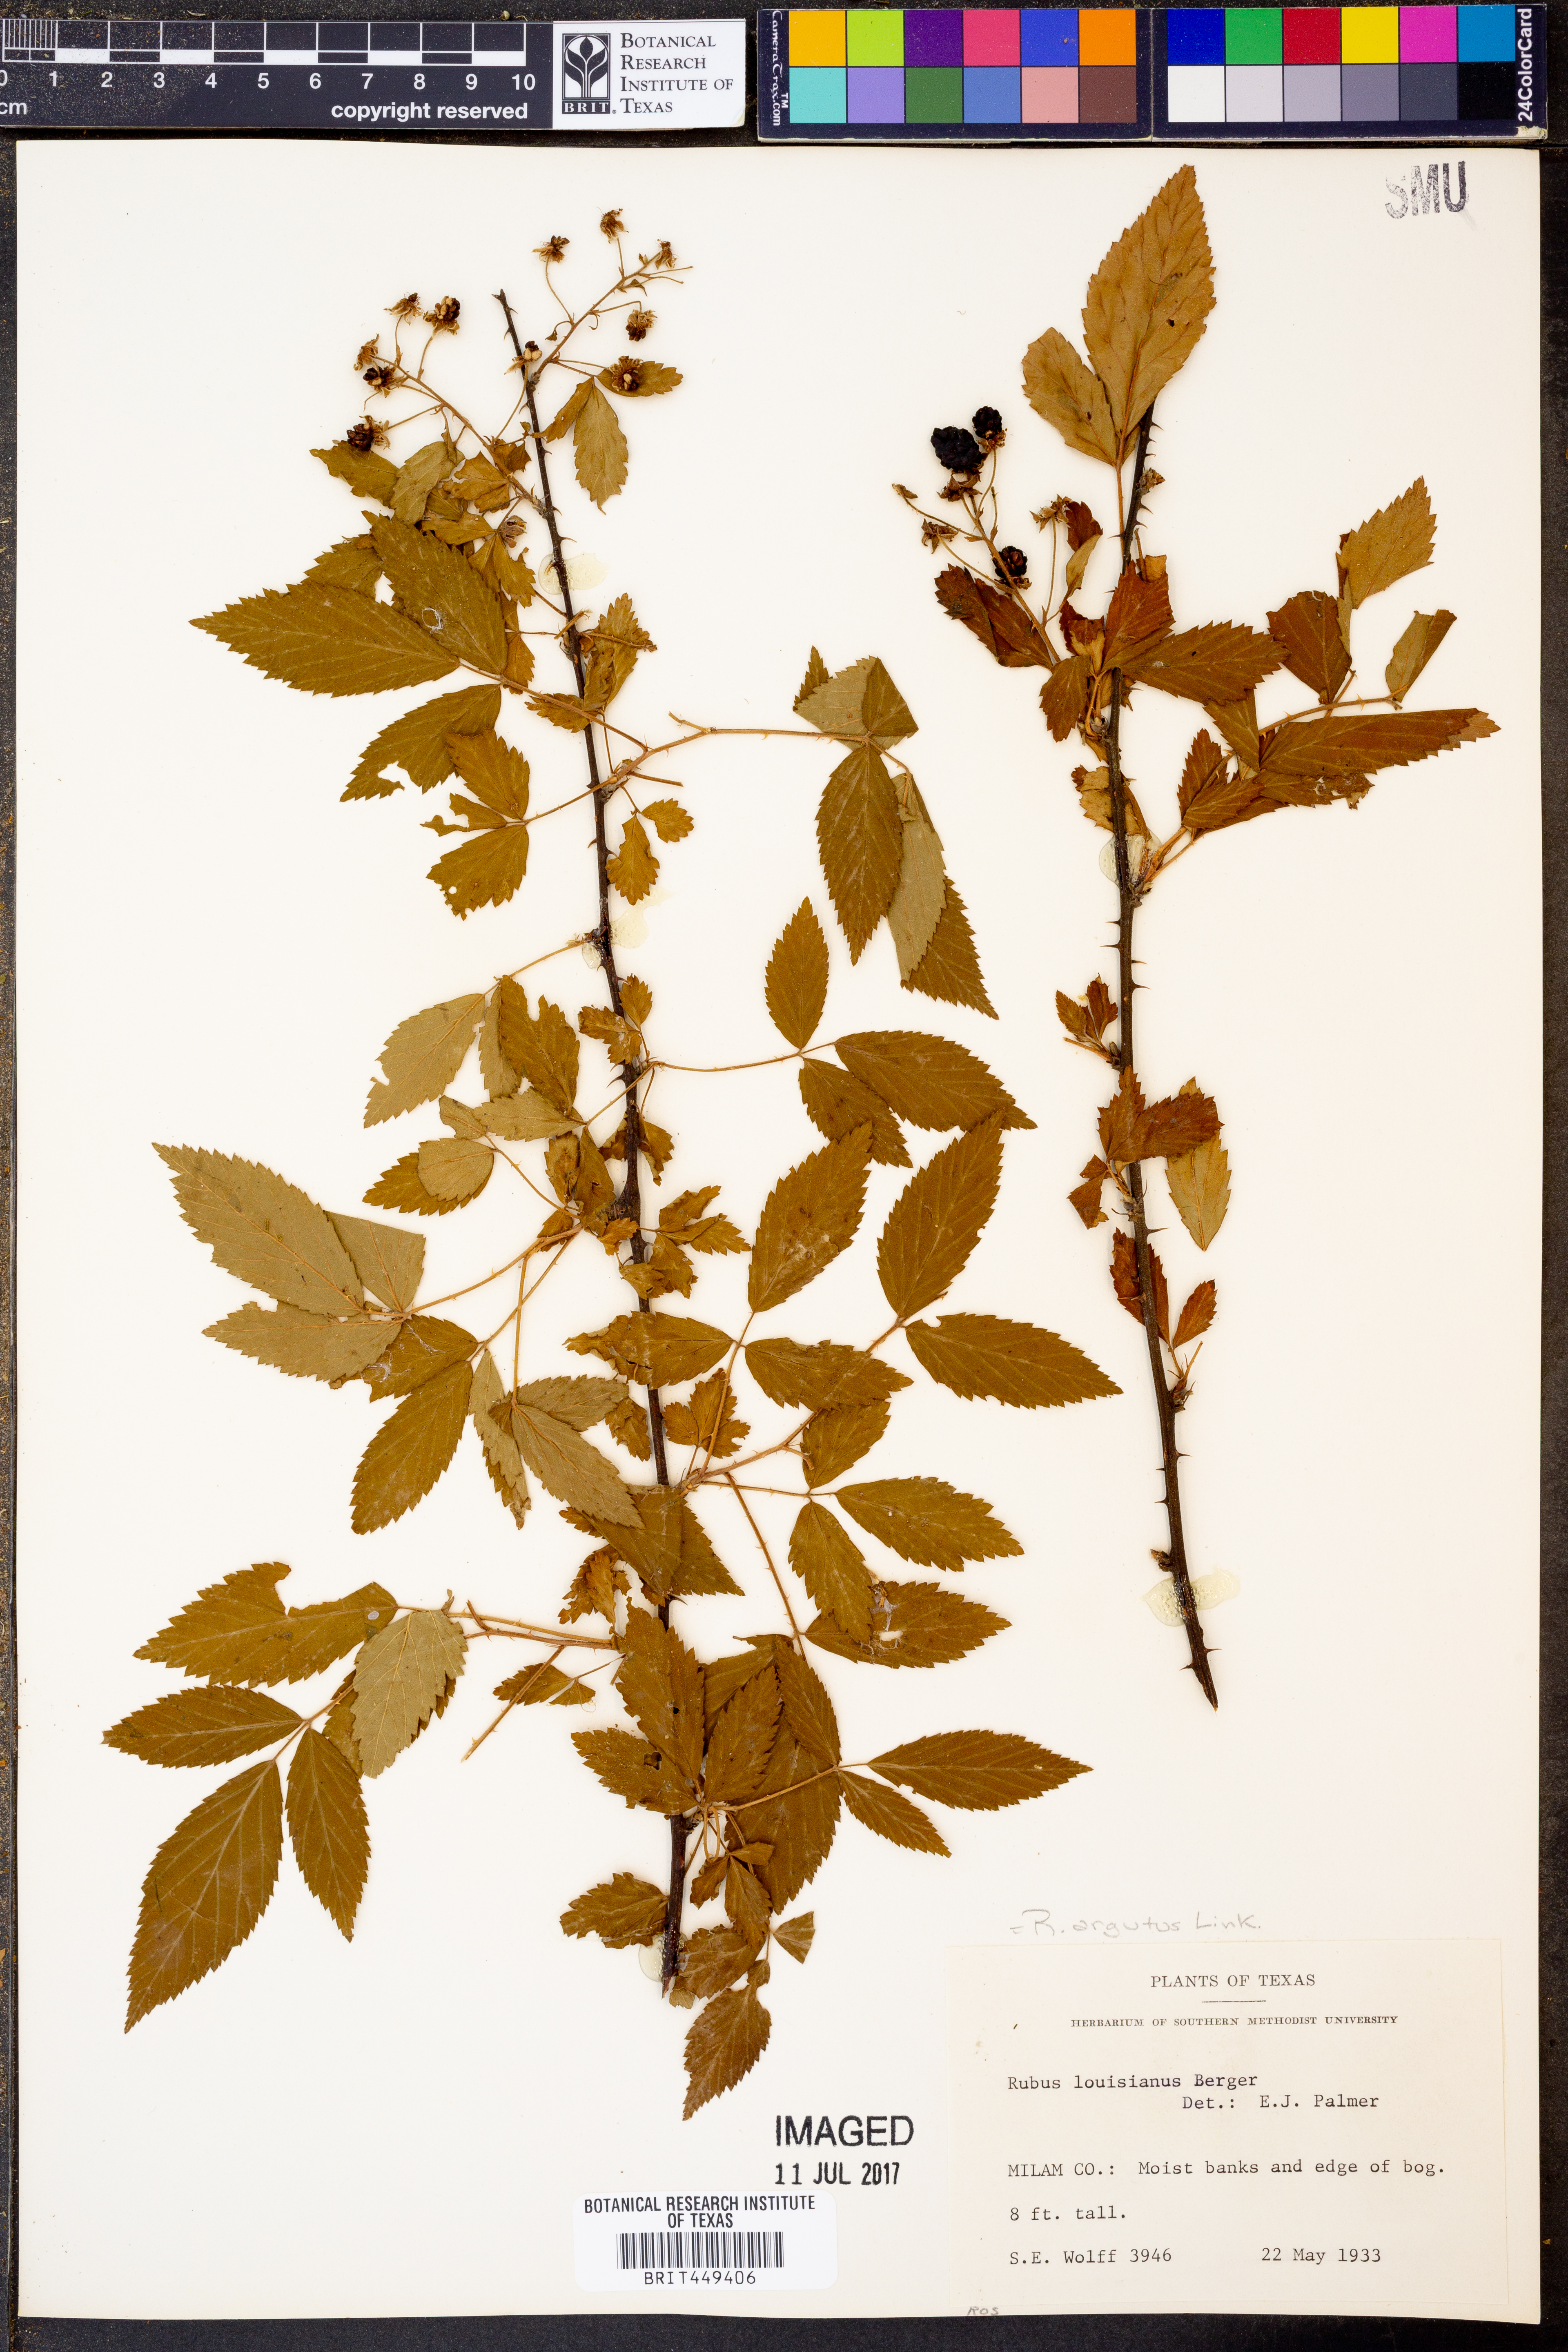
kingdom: Plantae
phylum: Tracheophyta
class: Magnoliopsida
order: Rosales
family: Rosaceae
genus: Rubus
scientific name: Rubus argutus
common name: Sawtooth blackberry
